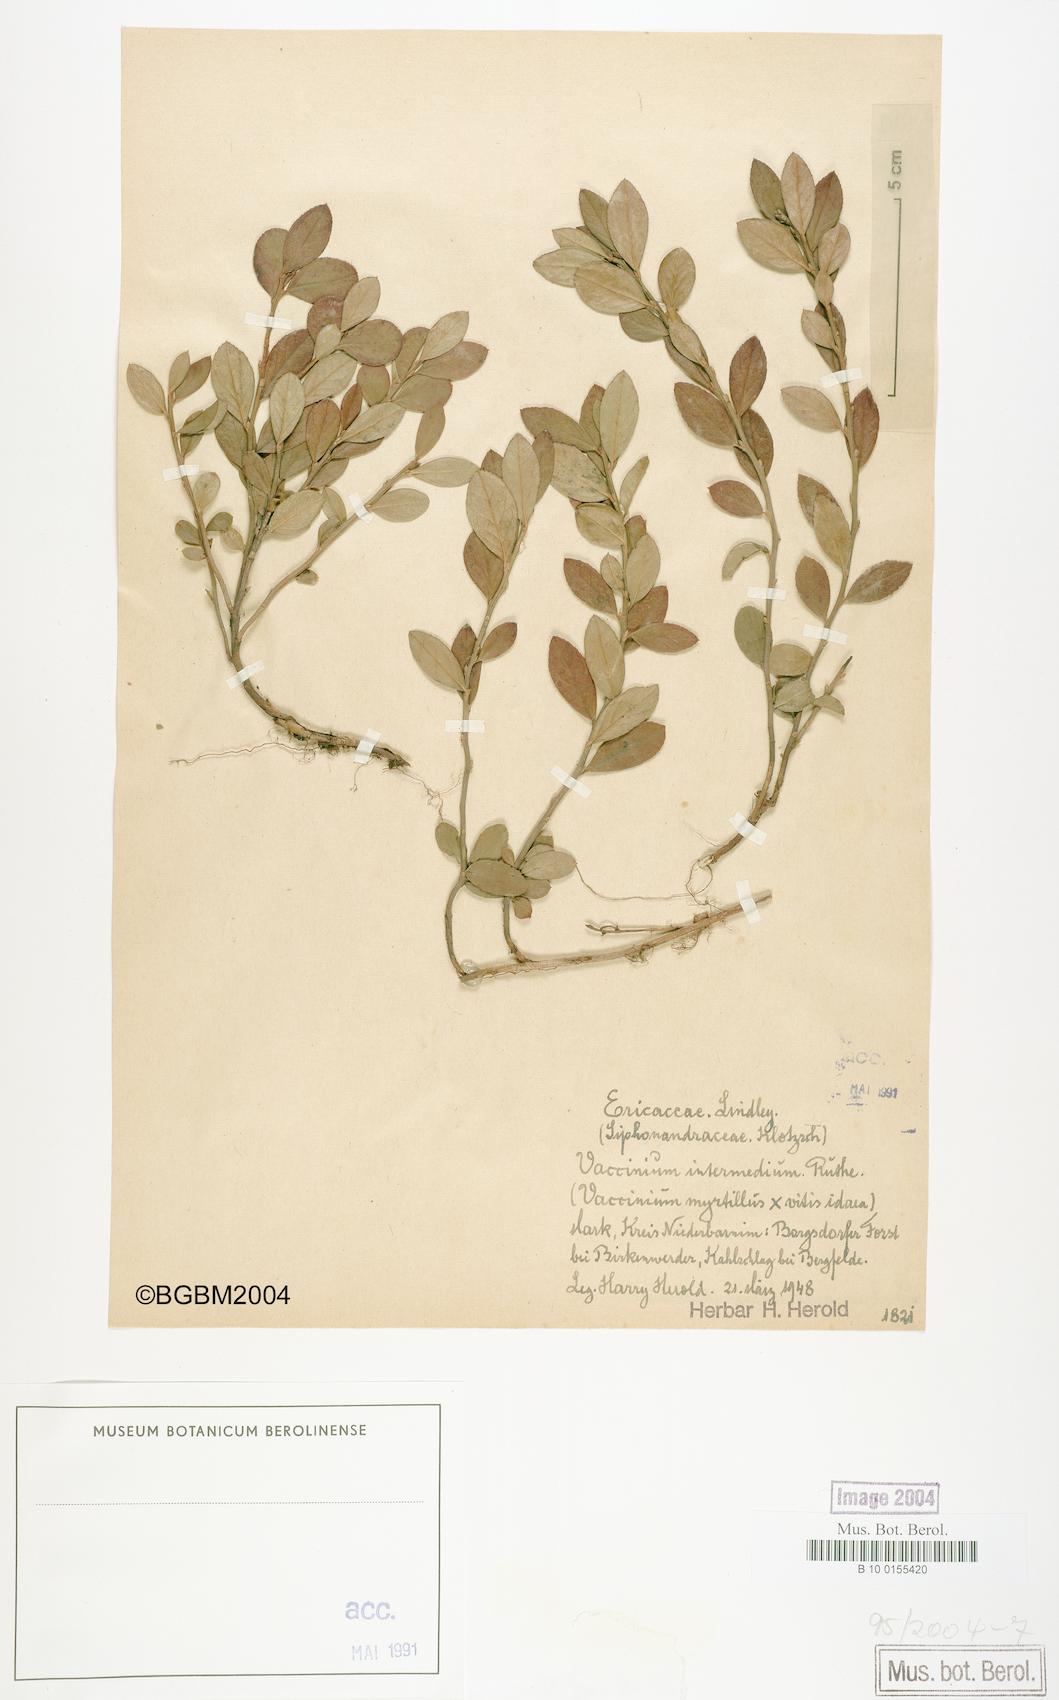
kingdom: Plantae
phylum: Tracheophyta
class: Magnoliopsida
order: Ericales
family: Ericaceae
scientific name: Ericaceae
